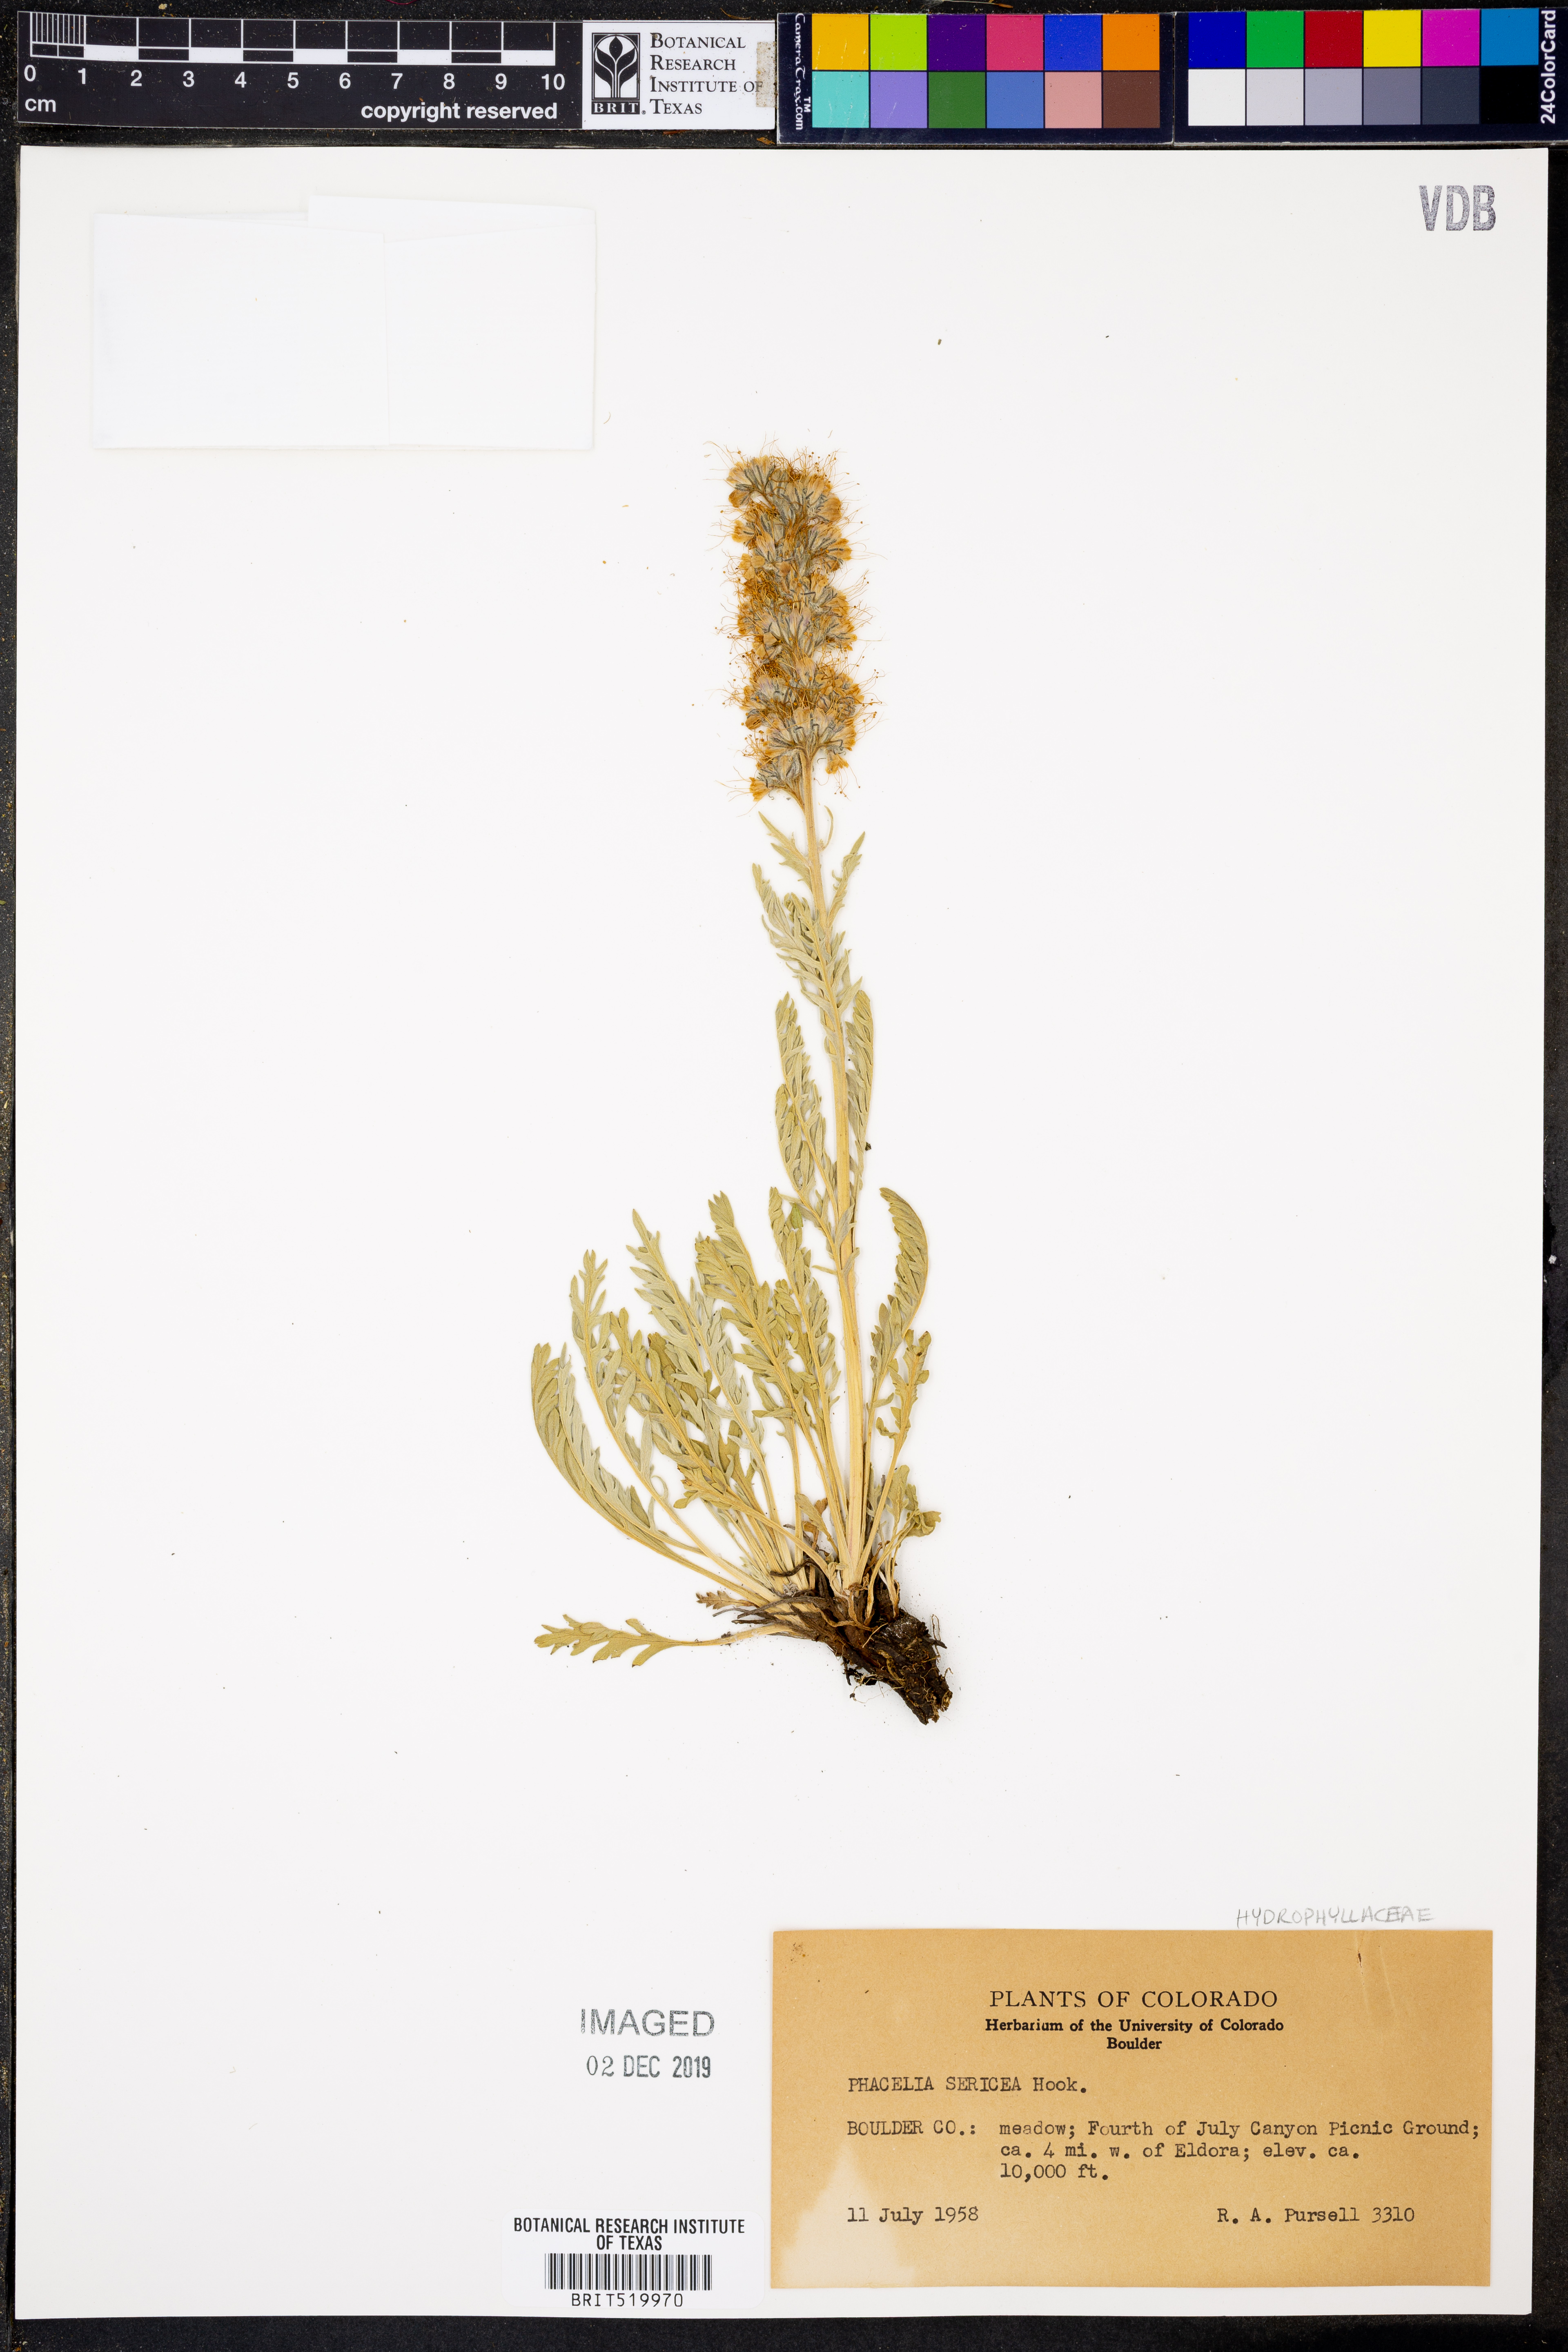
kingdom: Plantae
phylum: Tracheophyta
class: Magnoliopsida
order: Boraginales
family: Hydrophyllaceae
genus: Phacelia
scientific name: Phacelia sericea
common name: Silky phacelia
